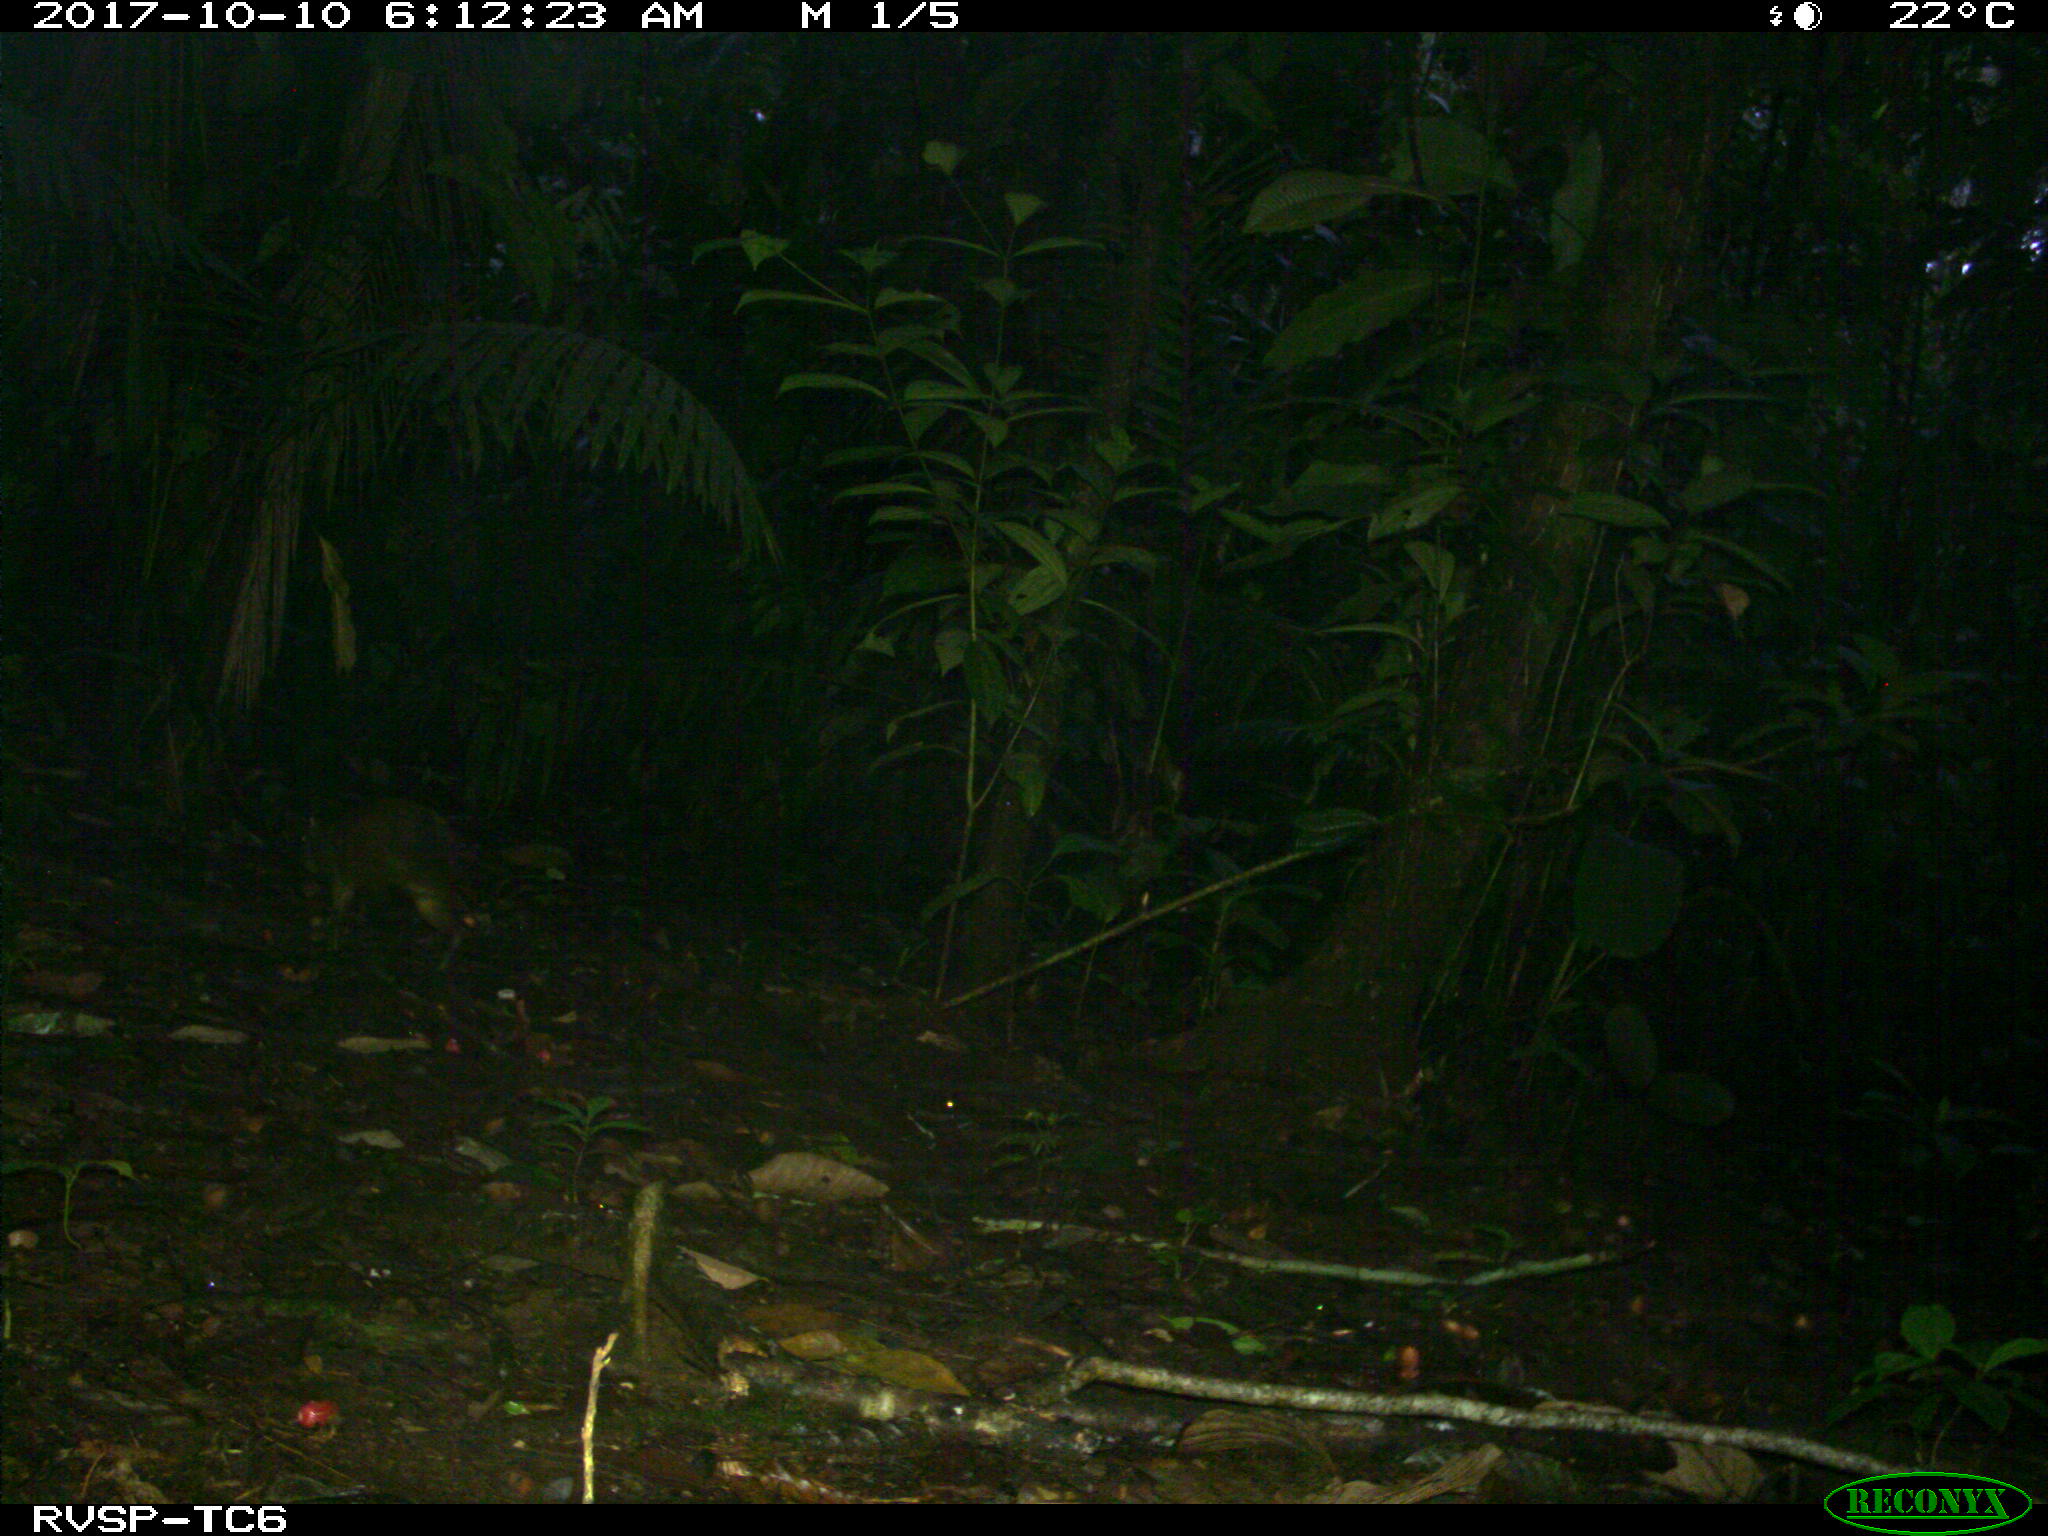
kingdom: Animalia
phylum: Chordata
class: Mammalia
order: Rodentia
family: Dasyproctidae
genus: Dasyprocta
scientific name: Dasyprocta punctata
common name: Central american agouti
